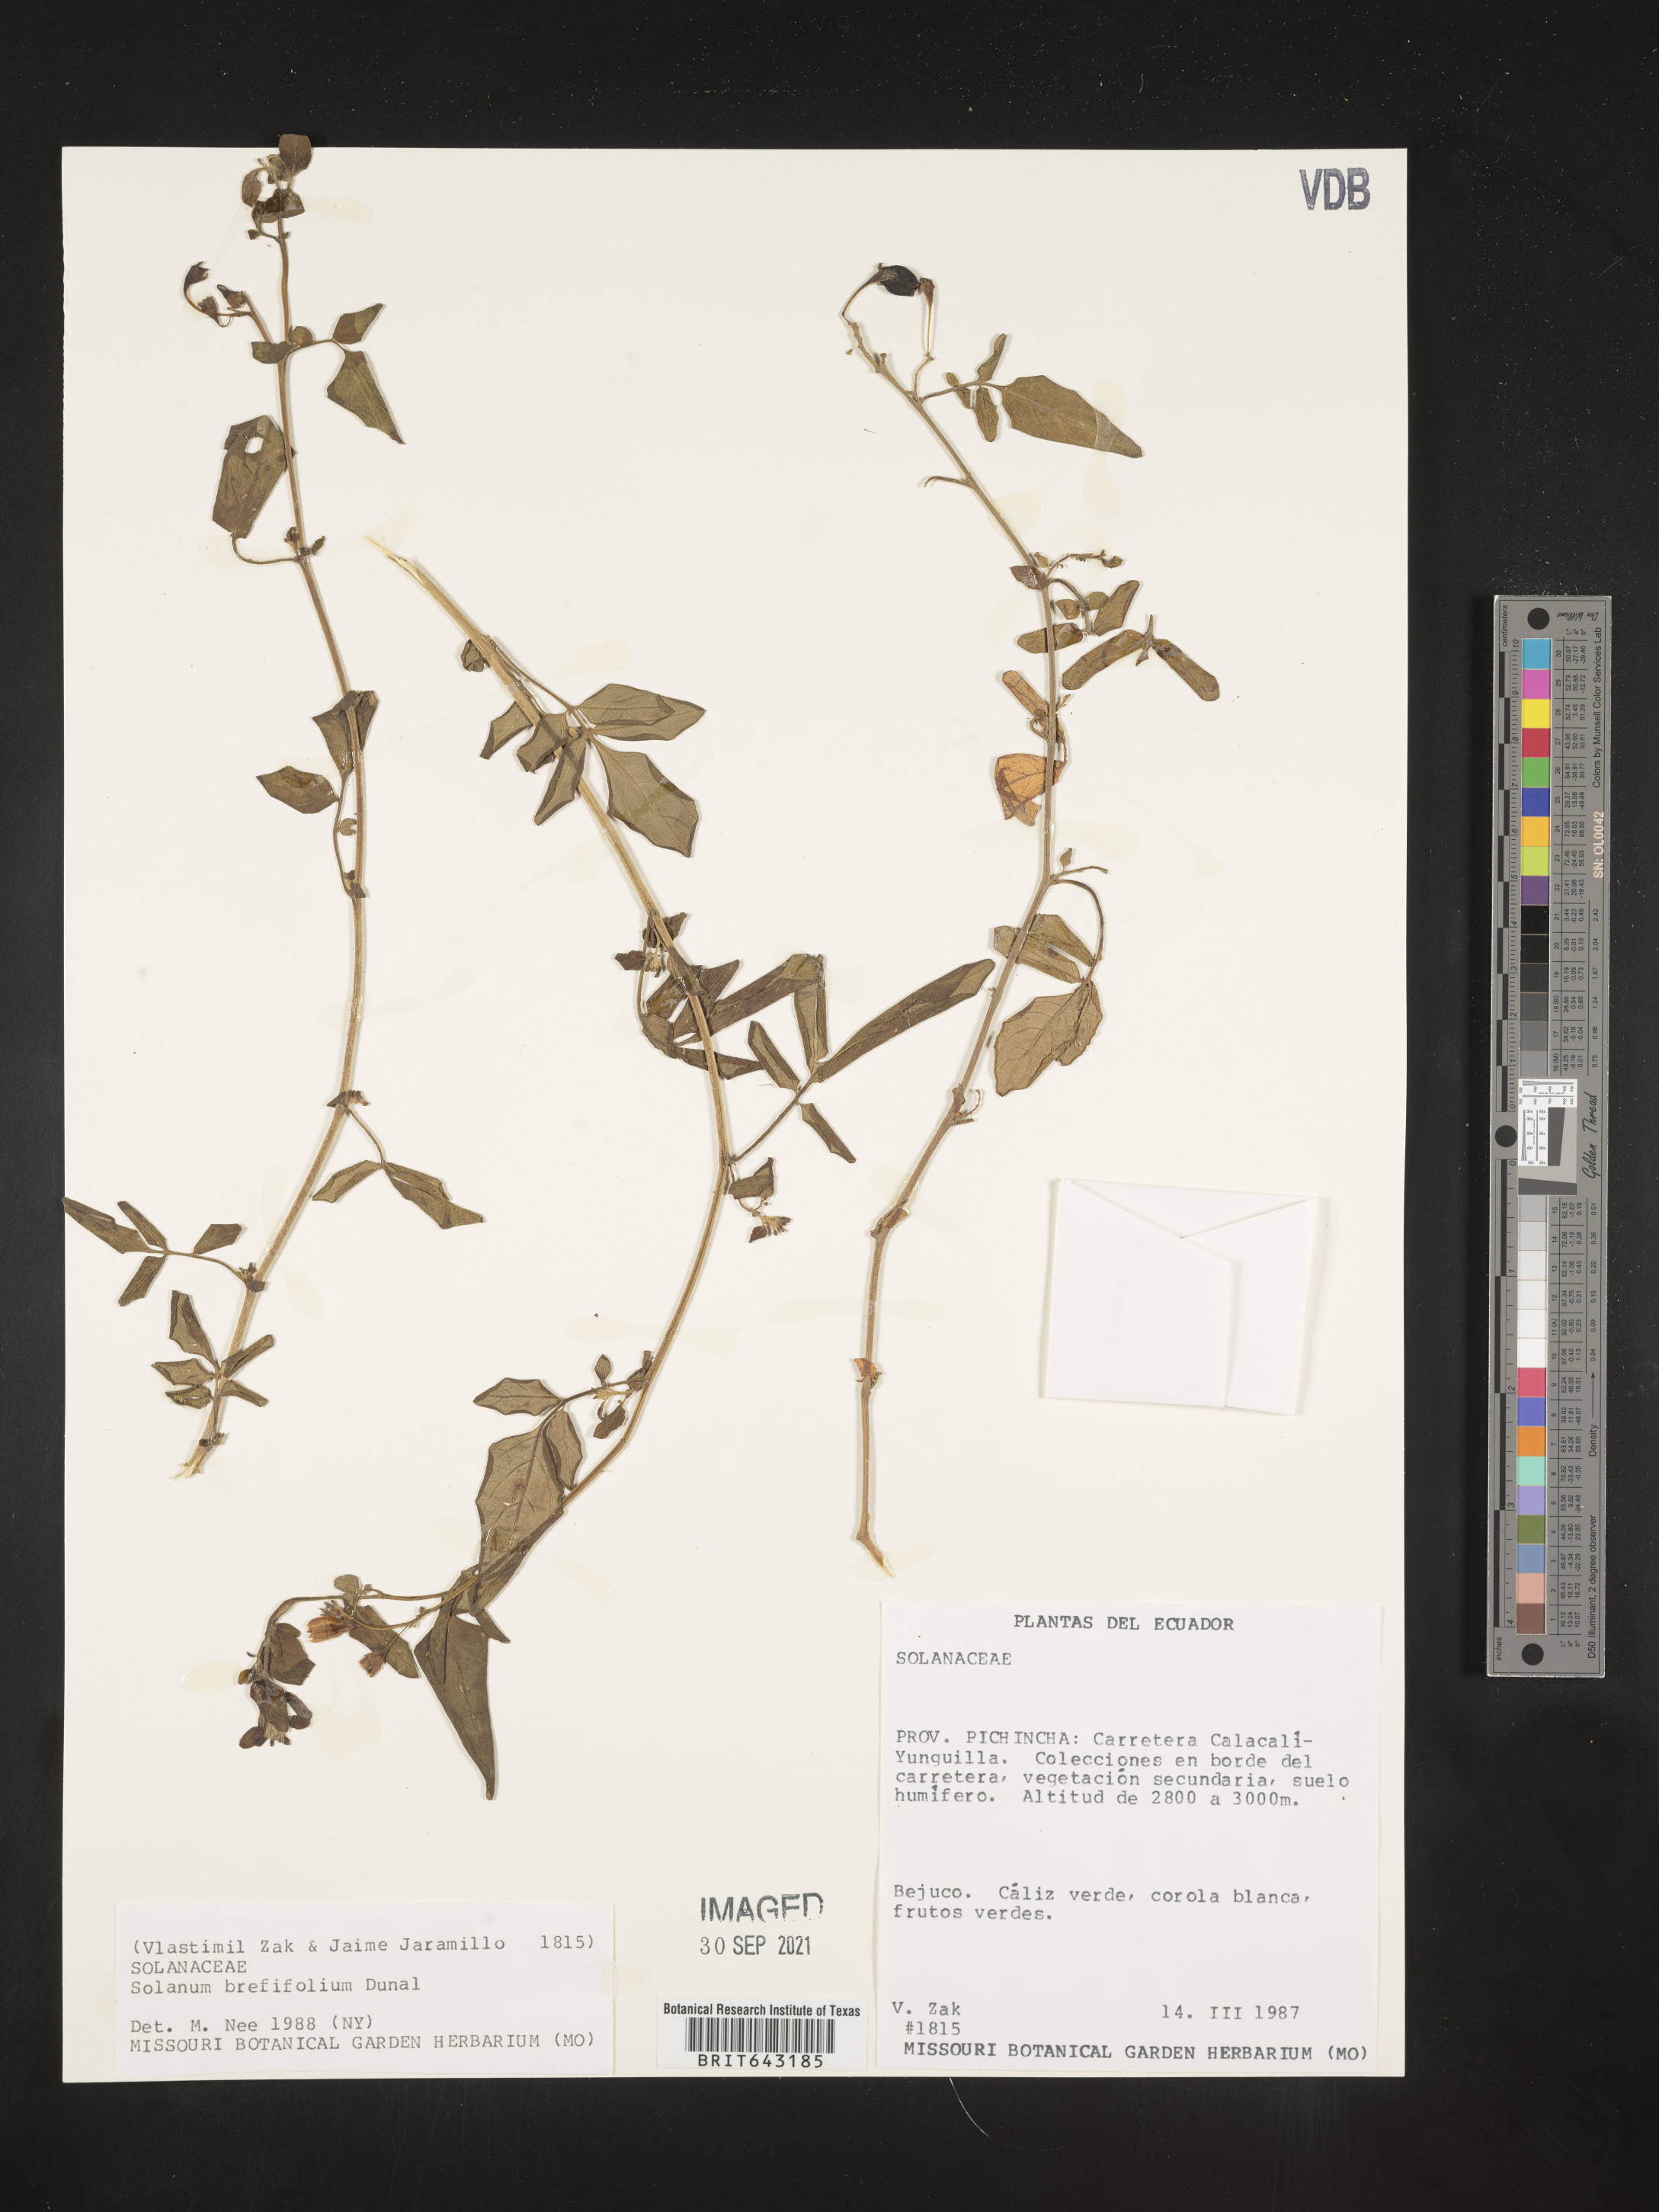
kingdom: Plantae
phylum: Tracheophyta
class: Magnoliopsida
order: Solanales
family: Solanaceae
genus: Solanum
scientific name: Solanum
